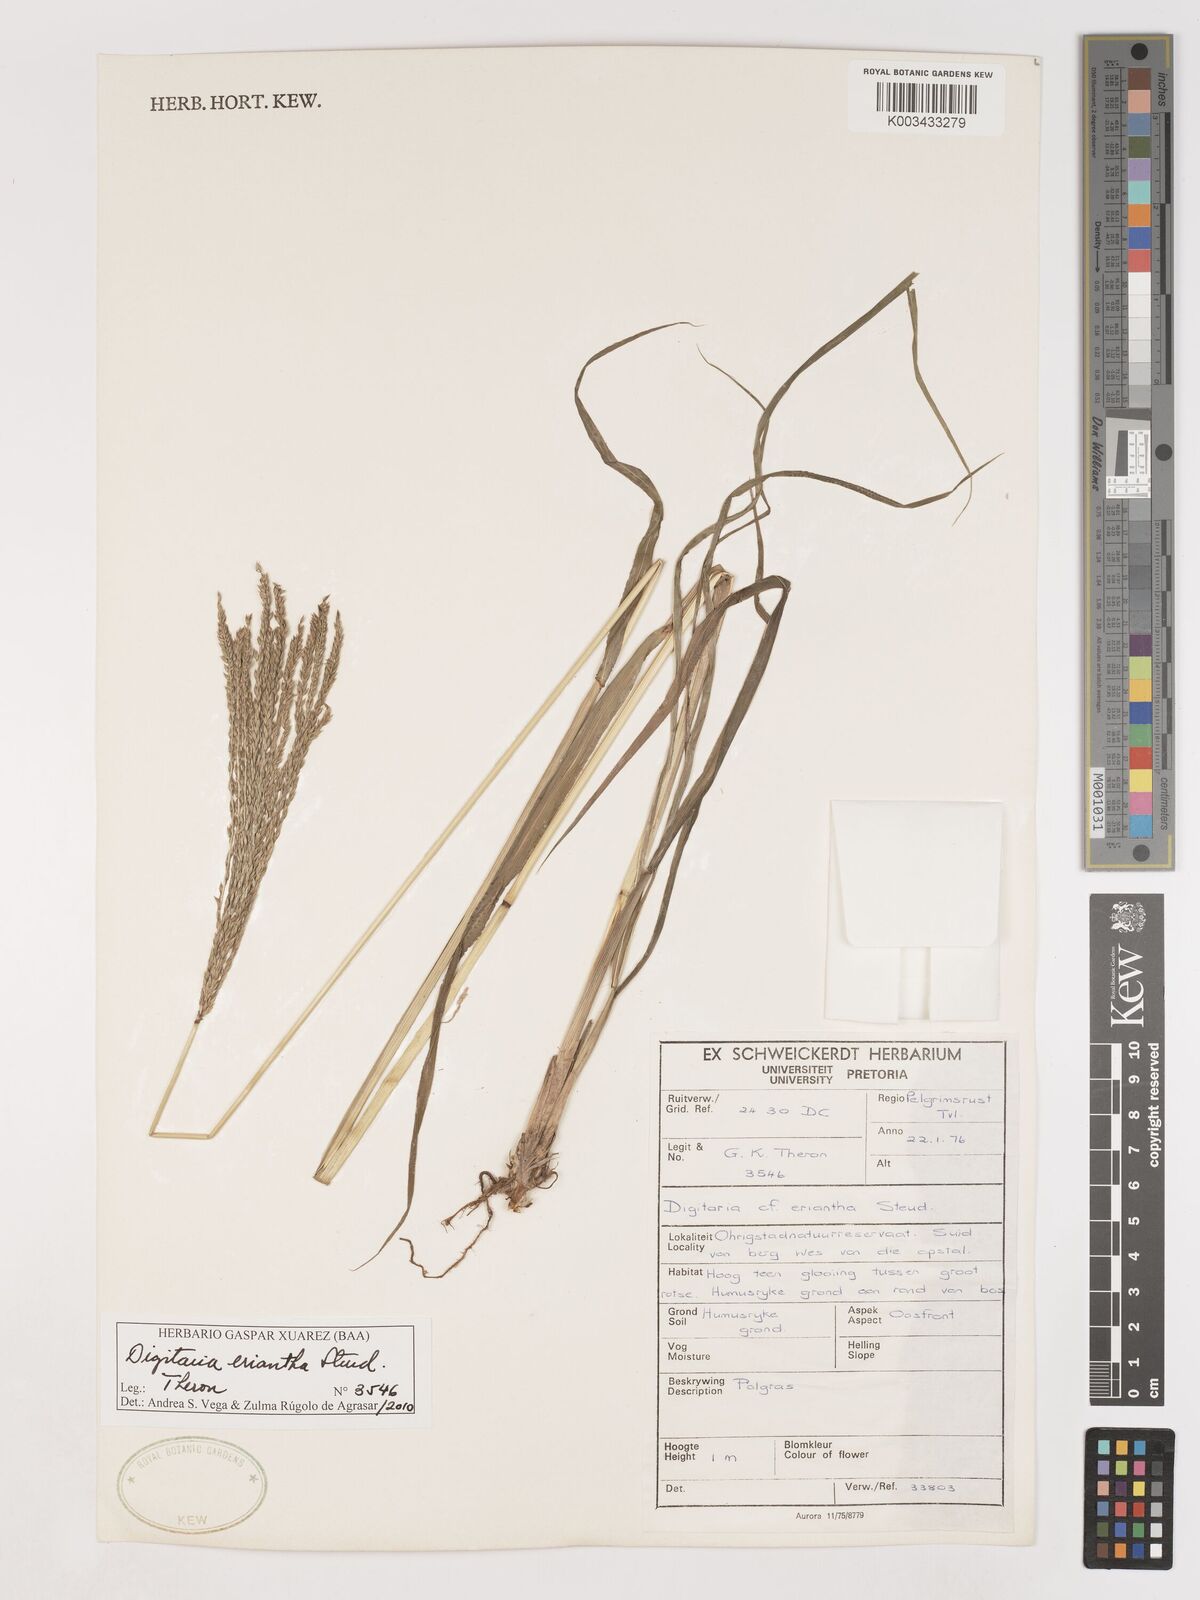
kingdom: Plantae
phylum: Tracheophyta
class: Liliopsida
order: Poales
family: Poaceae
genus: Digitaria
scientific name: Digitaria eriantha
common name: Digitgrass
